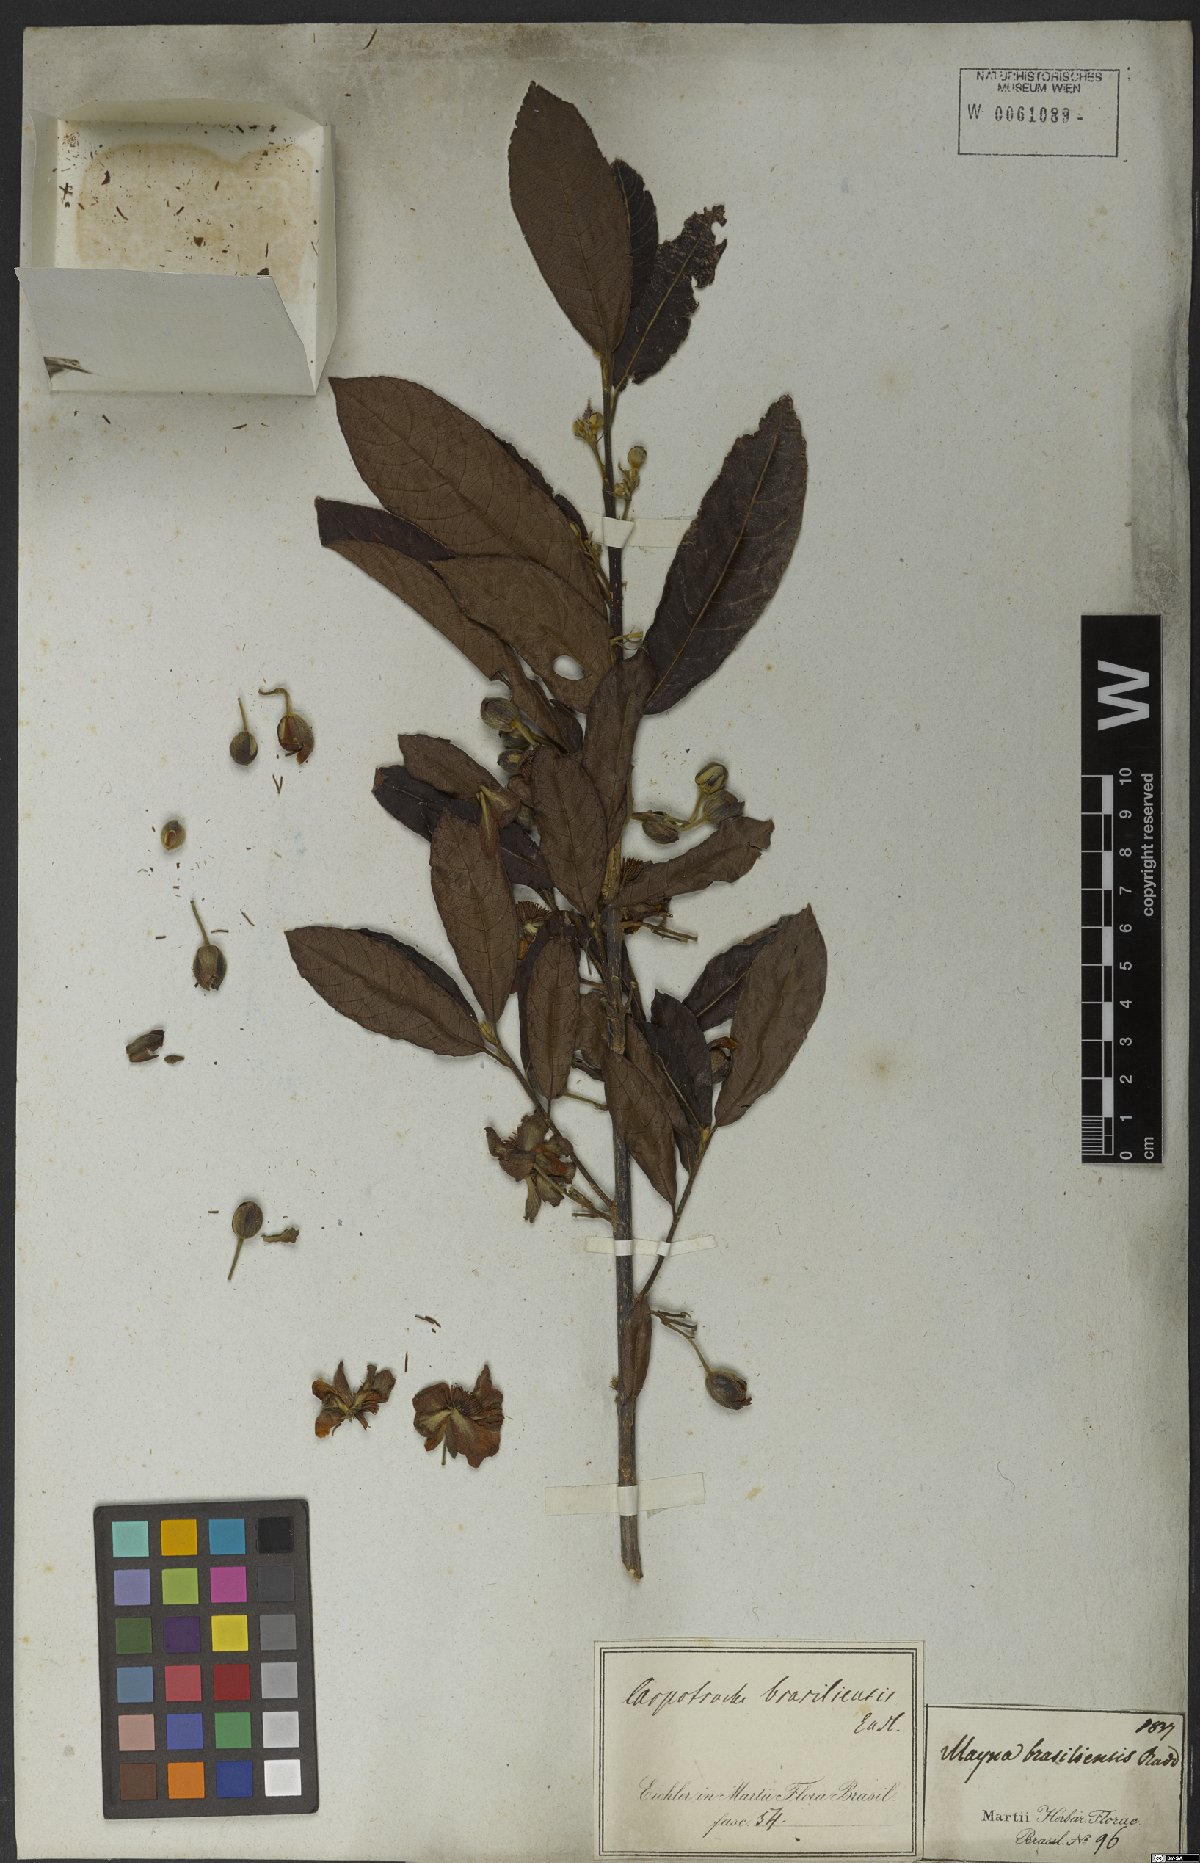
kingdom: Plantae
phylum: Tracheophyta
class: Magnoliopsida
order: Malpighiales
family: Achariaceae
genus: Carpotroche
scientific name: Carpotroche brasiliensis
